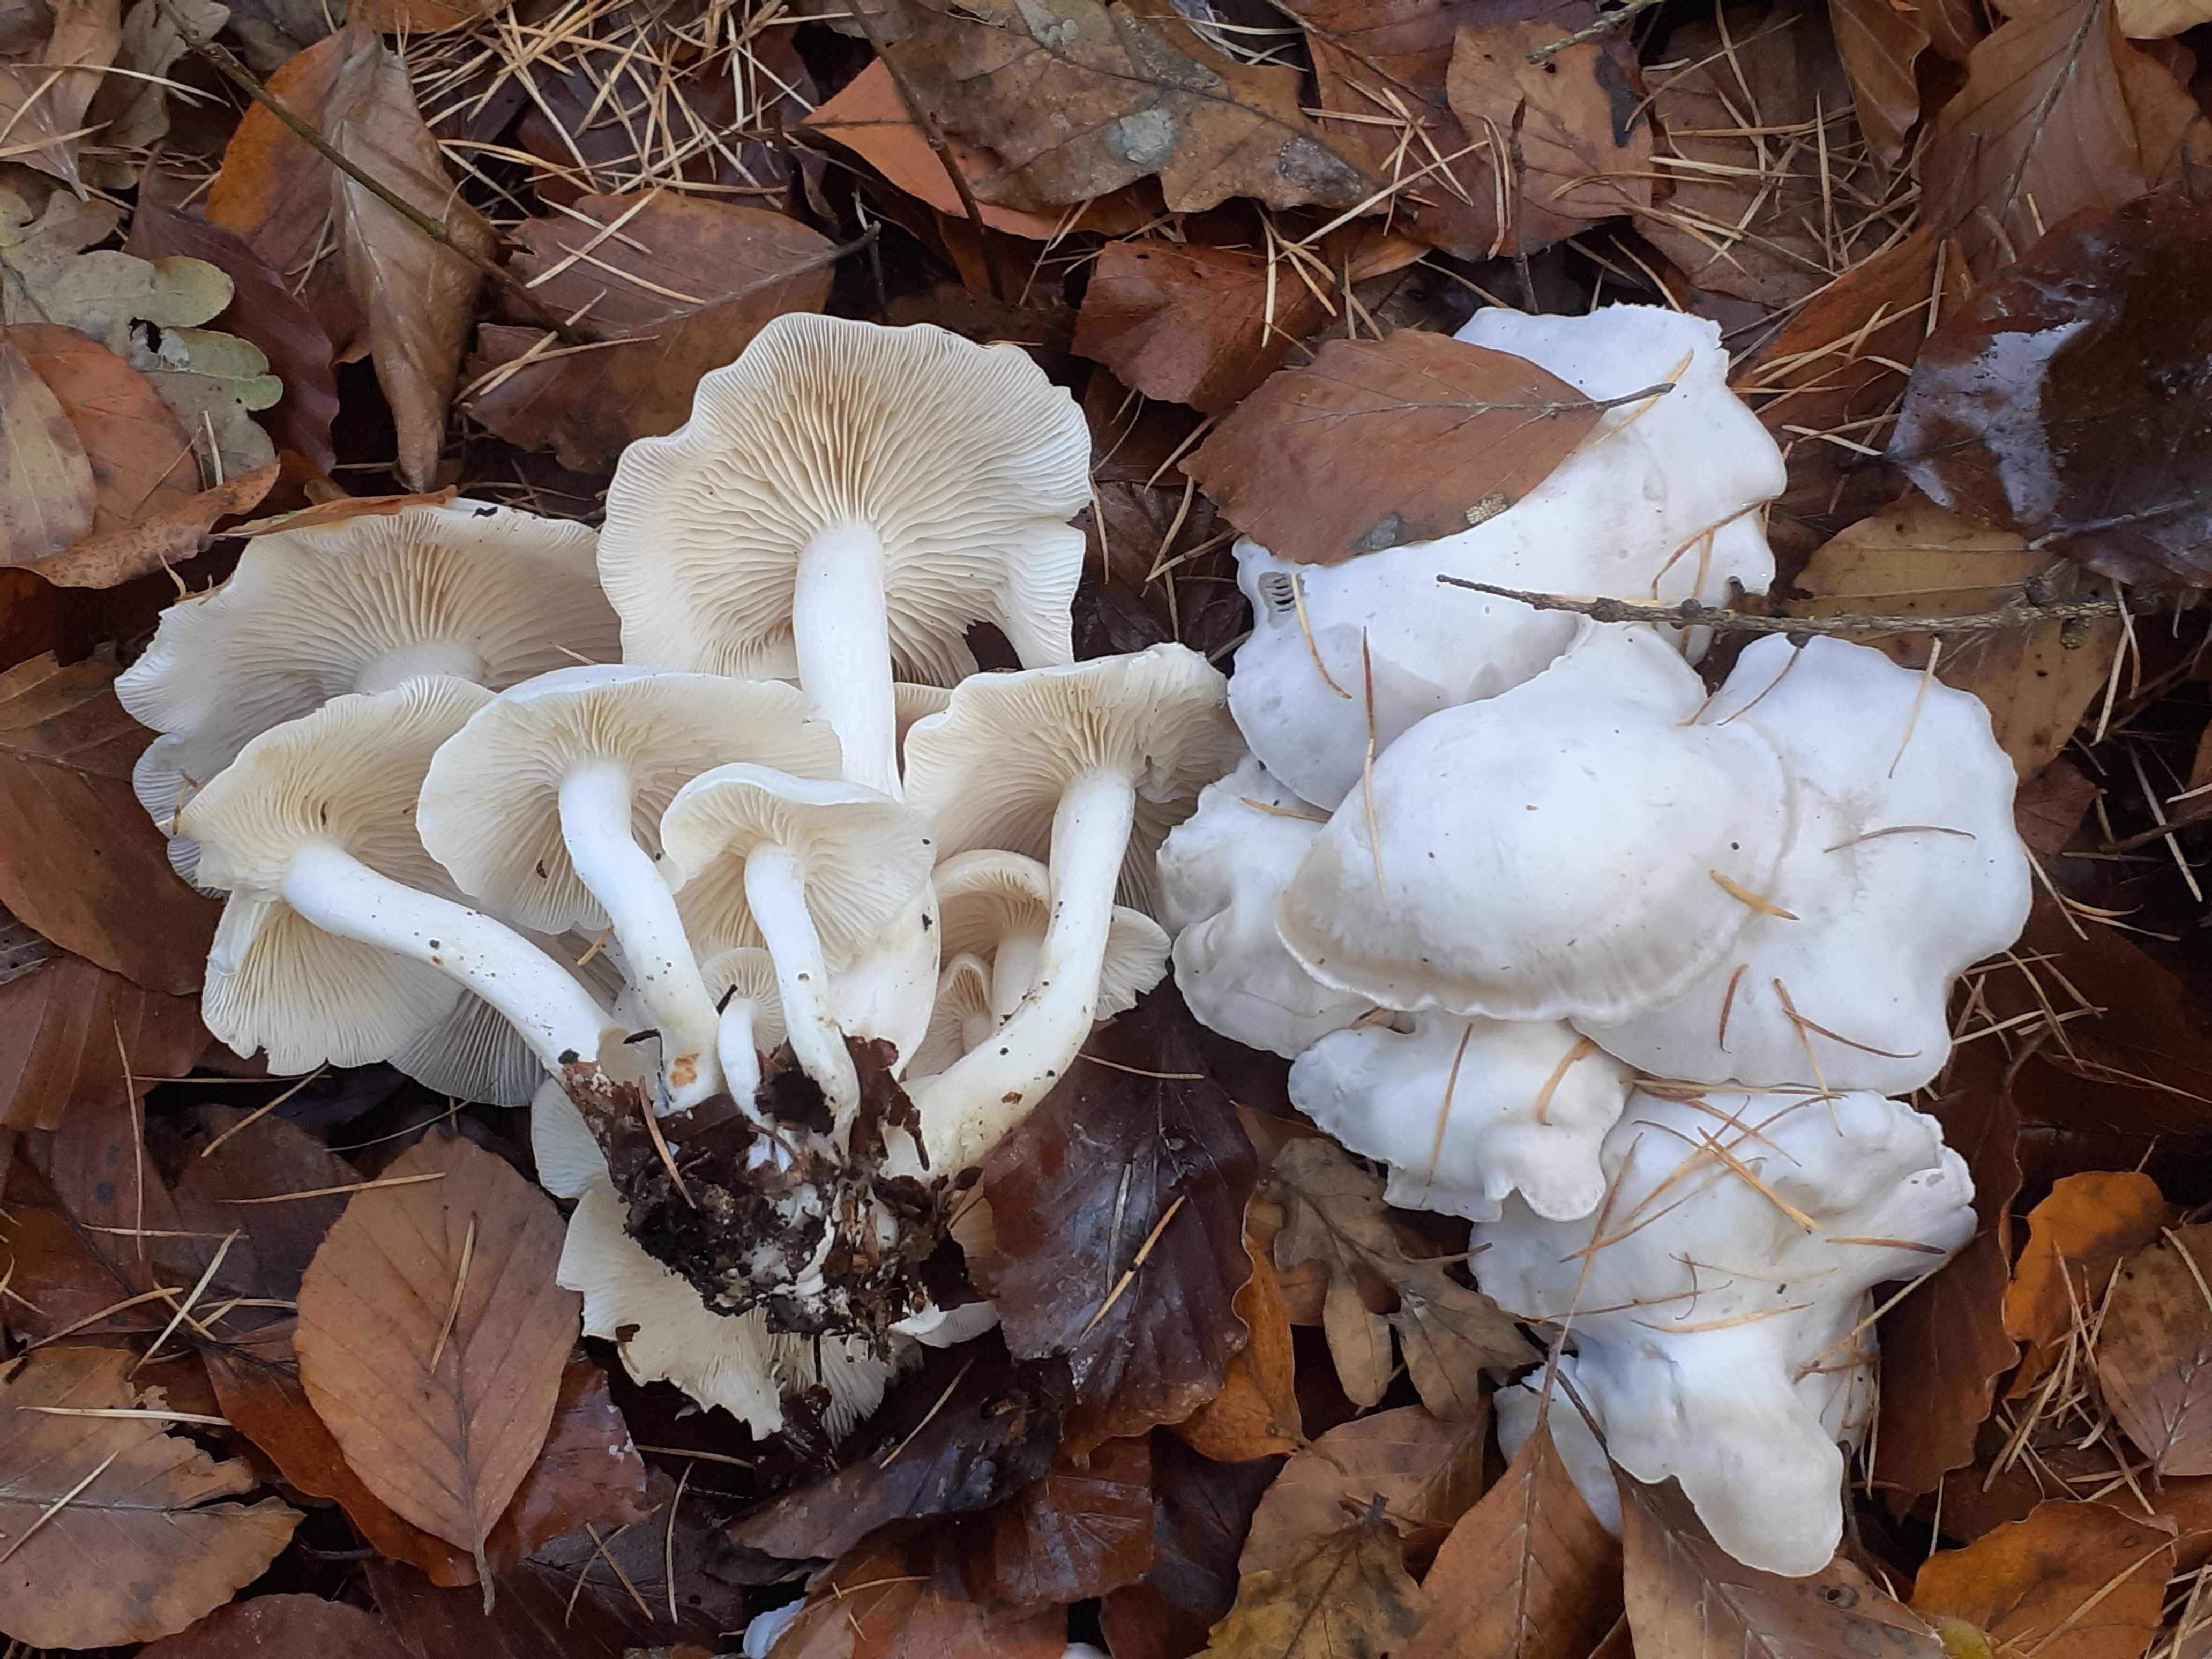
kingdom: Fungi
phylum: Basidiomycota
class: Agaricomycetes
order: Agaricales
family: Tricholomataceae
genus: Leucocybe
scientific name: Leucocybe connata
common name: knippe-tragthat
